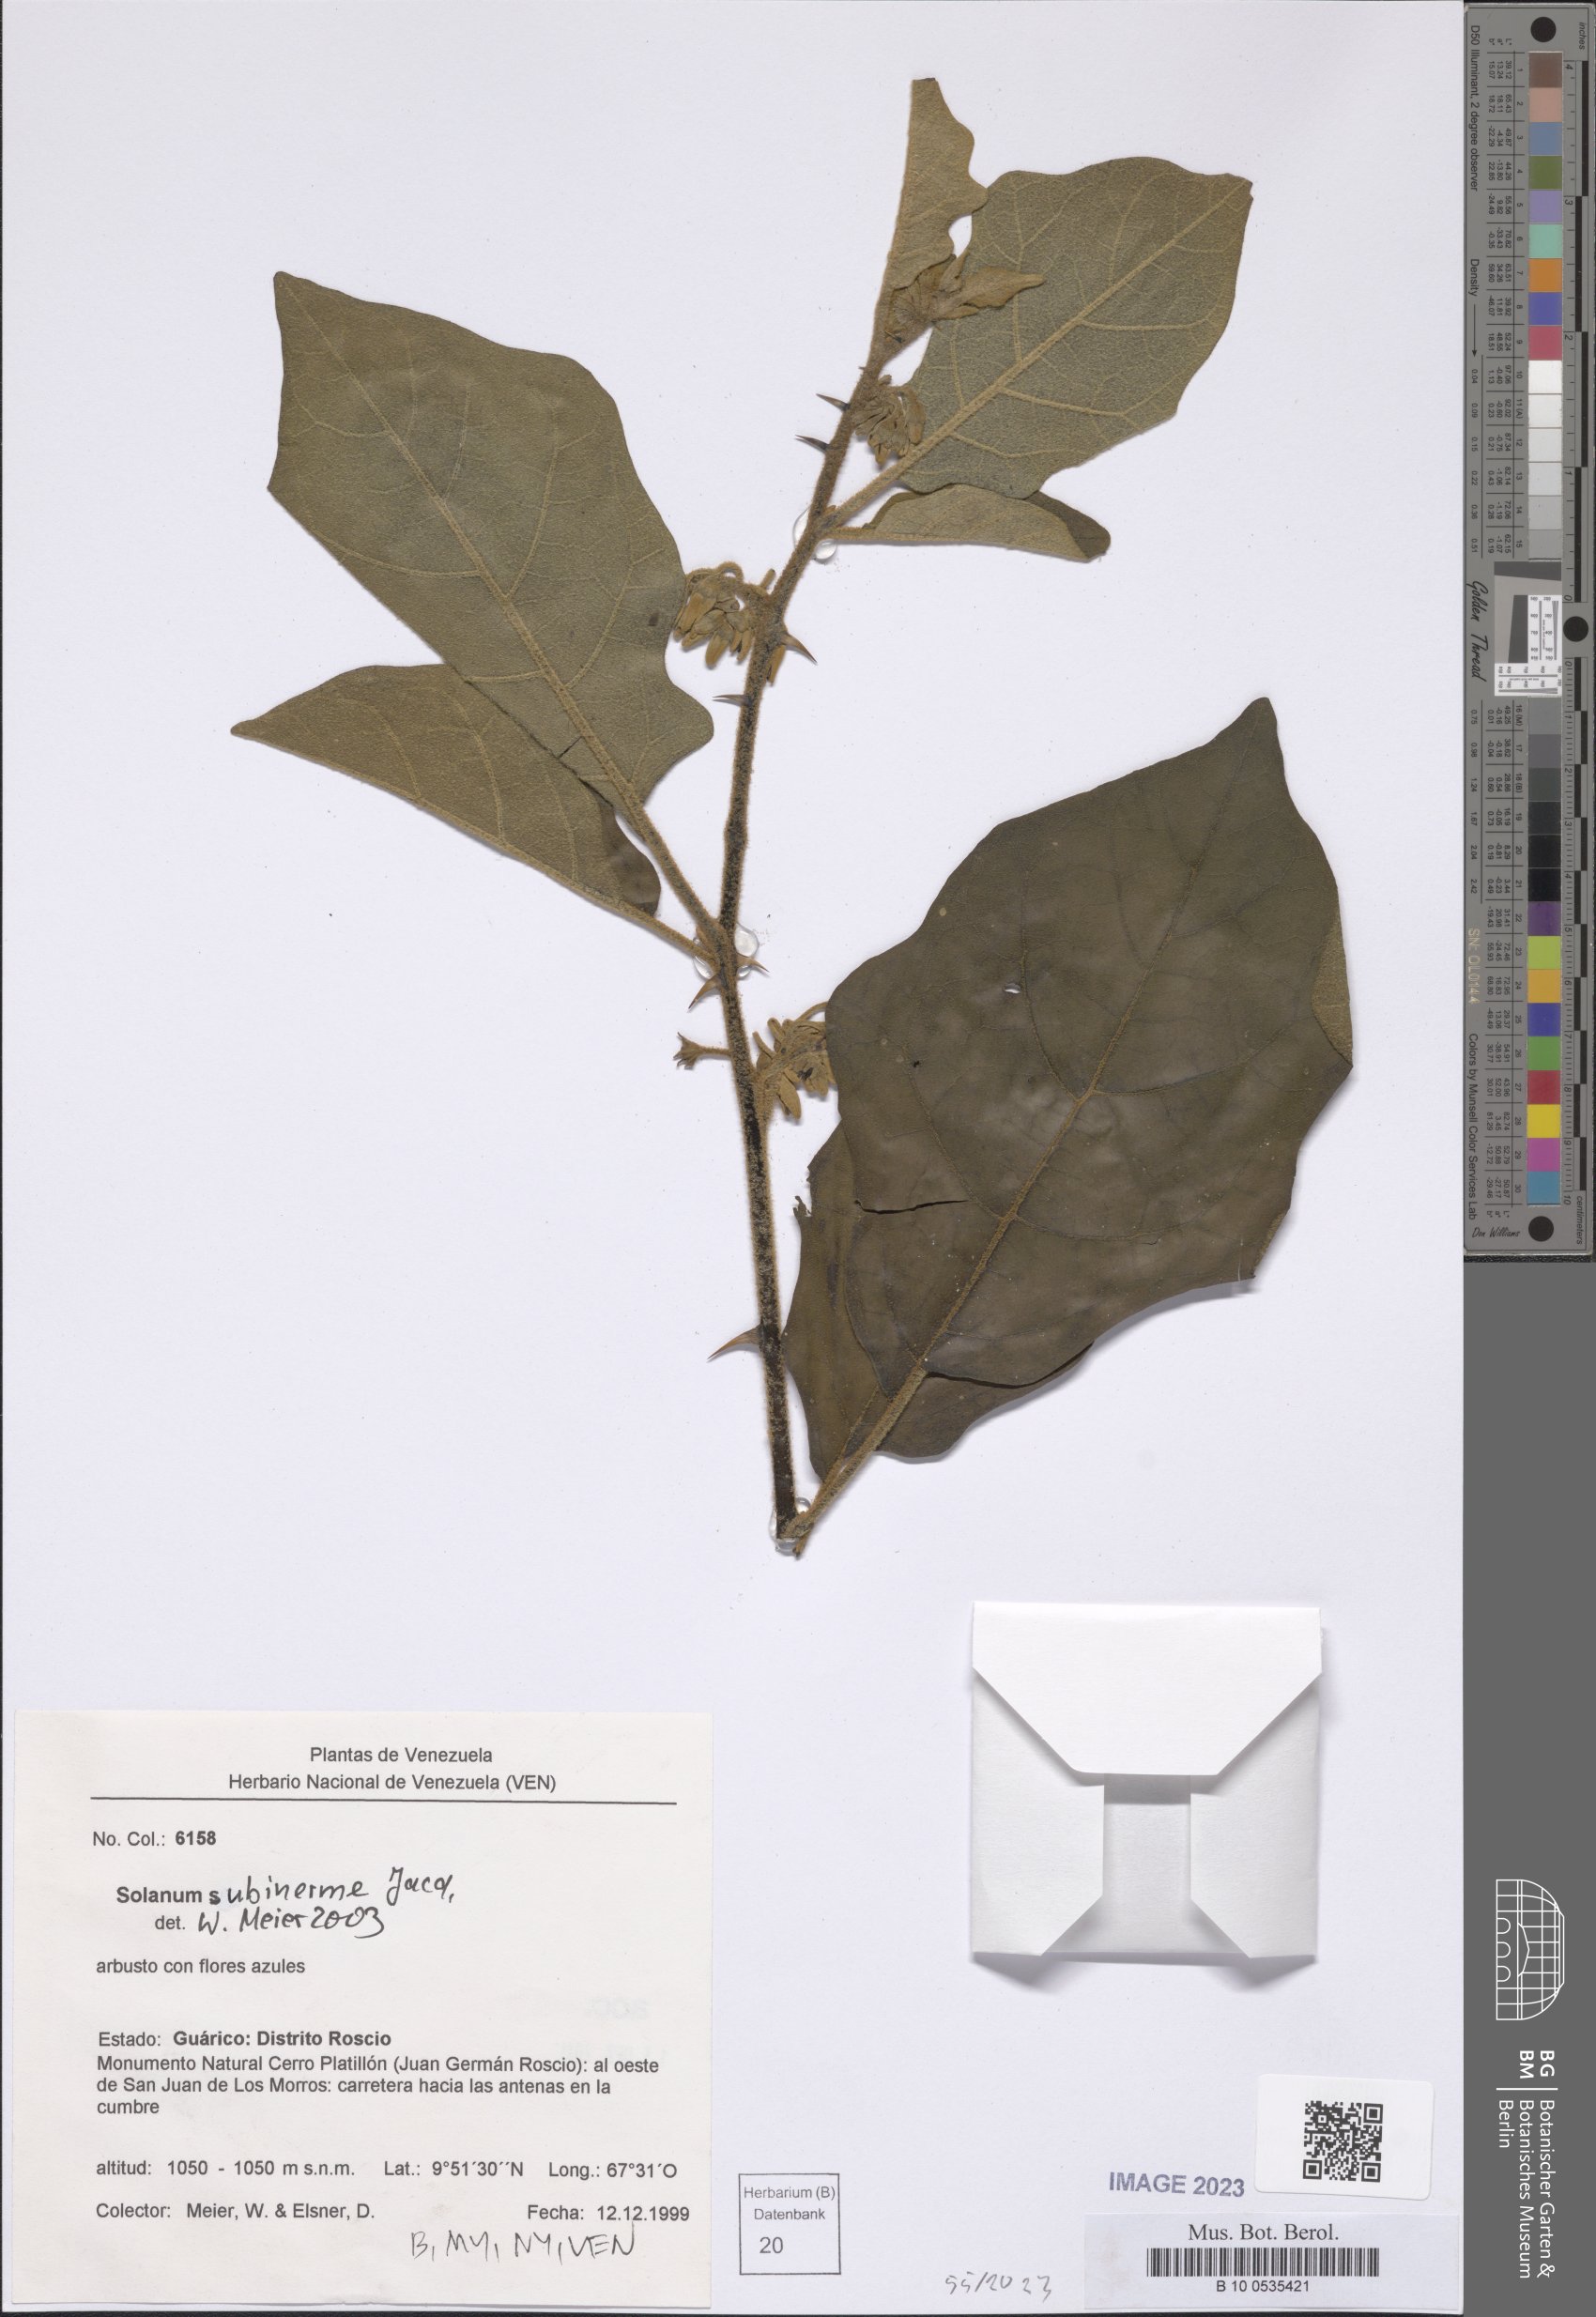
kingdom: Plantae
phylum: Tracheophyta
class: Magnoliopsida
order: Solanales
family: Solanaceae
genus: Solanum
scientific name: Solanum subinerme
